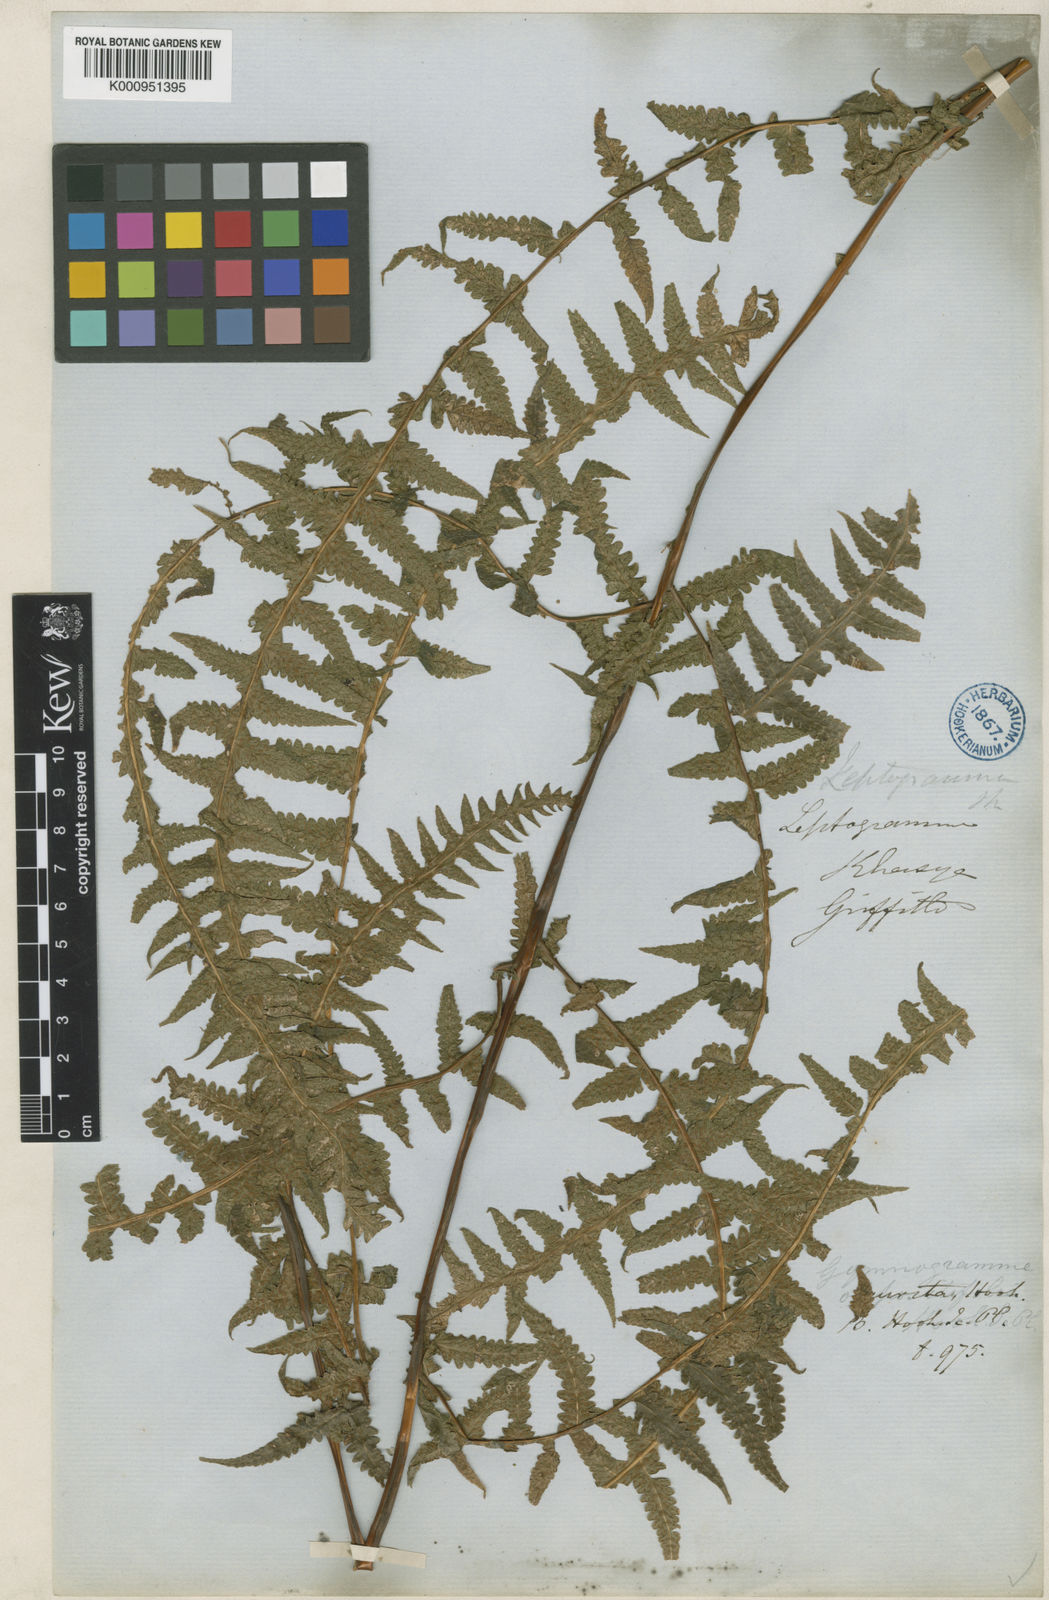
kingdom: Plantae
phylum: Tracheophyta
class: Polypodiopsida
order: Polypodiales
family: Thelypteridaceae
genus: Pseudophegopteris
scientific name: Pseudophegopteris aurita
